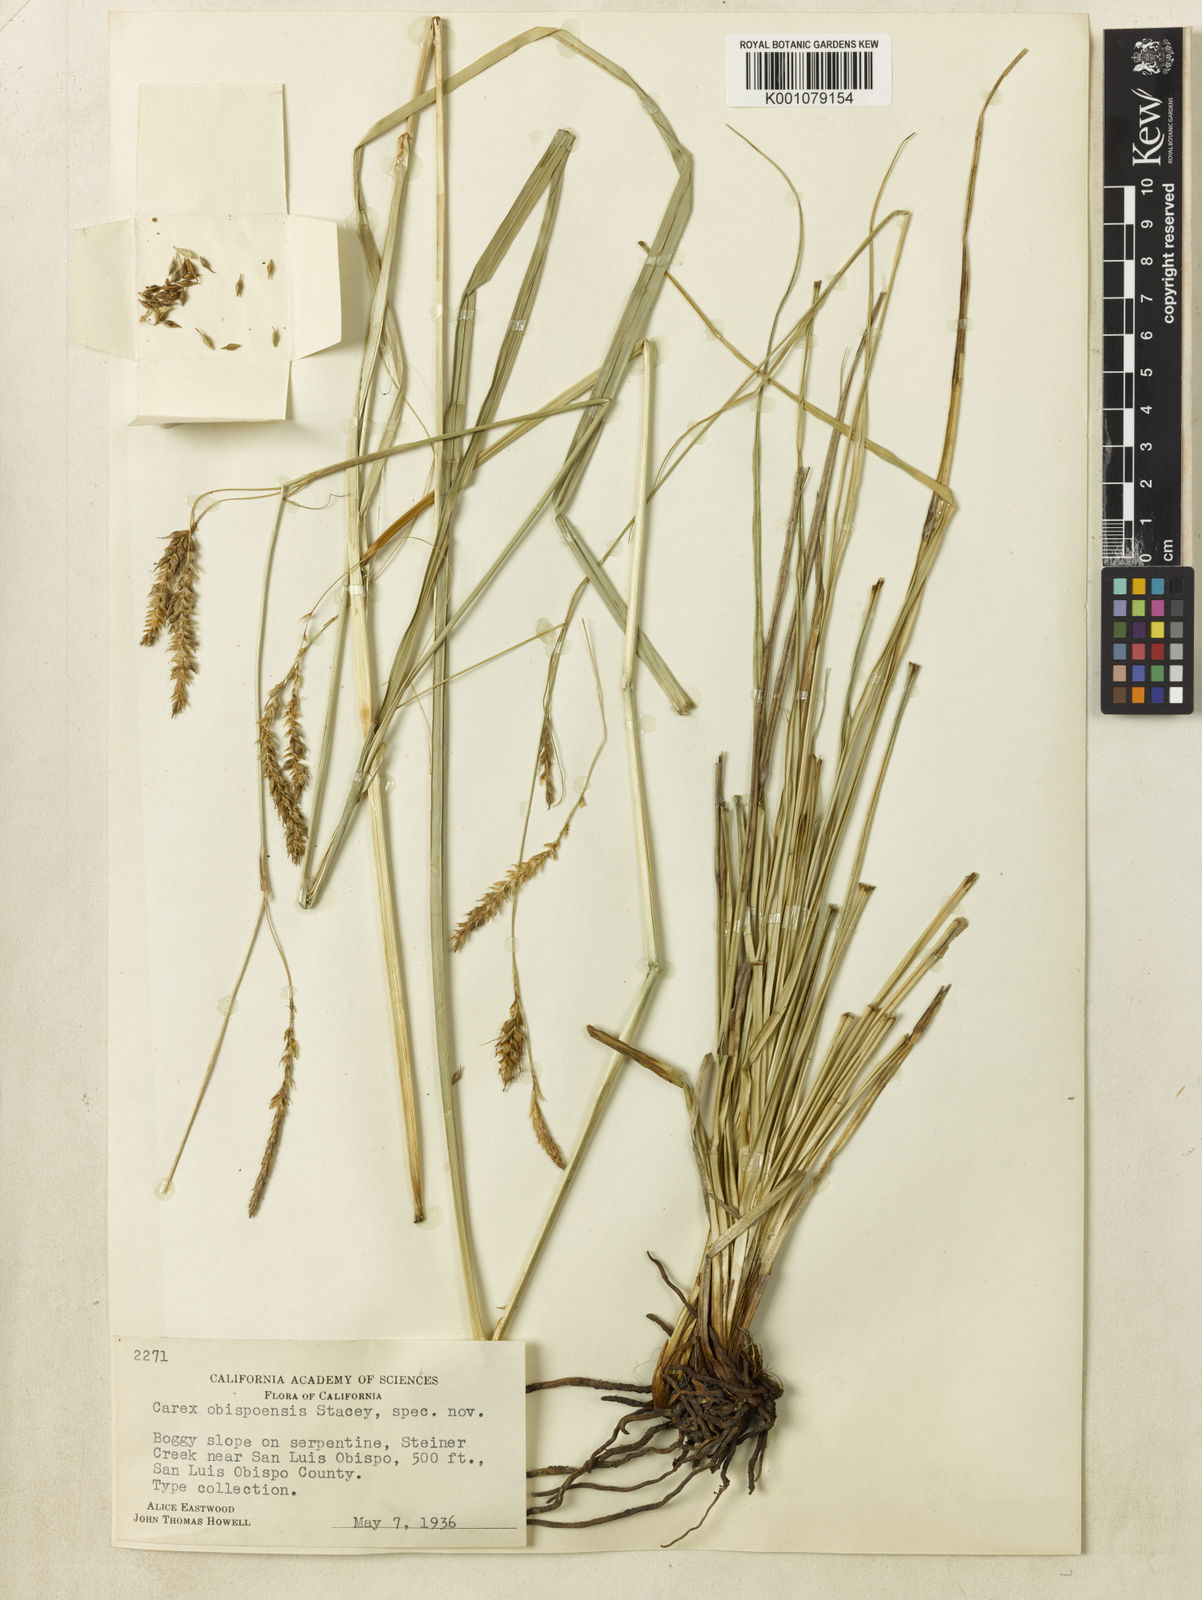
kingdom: Plantae
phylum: Tracheophyta
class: Liliopsida
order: Poales
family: Cyperaceae
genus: Carex
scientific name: Carex obispoensis
